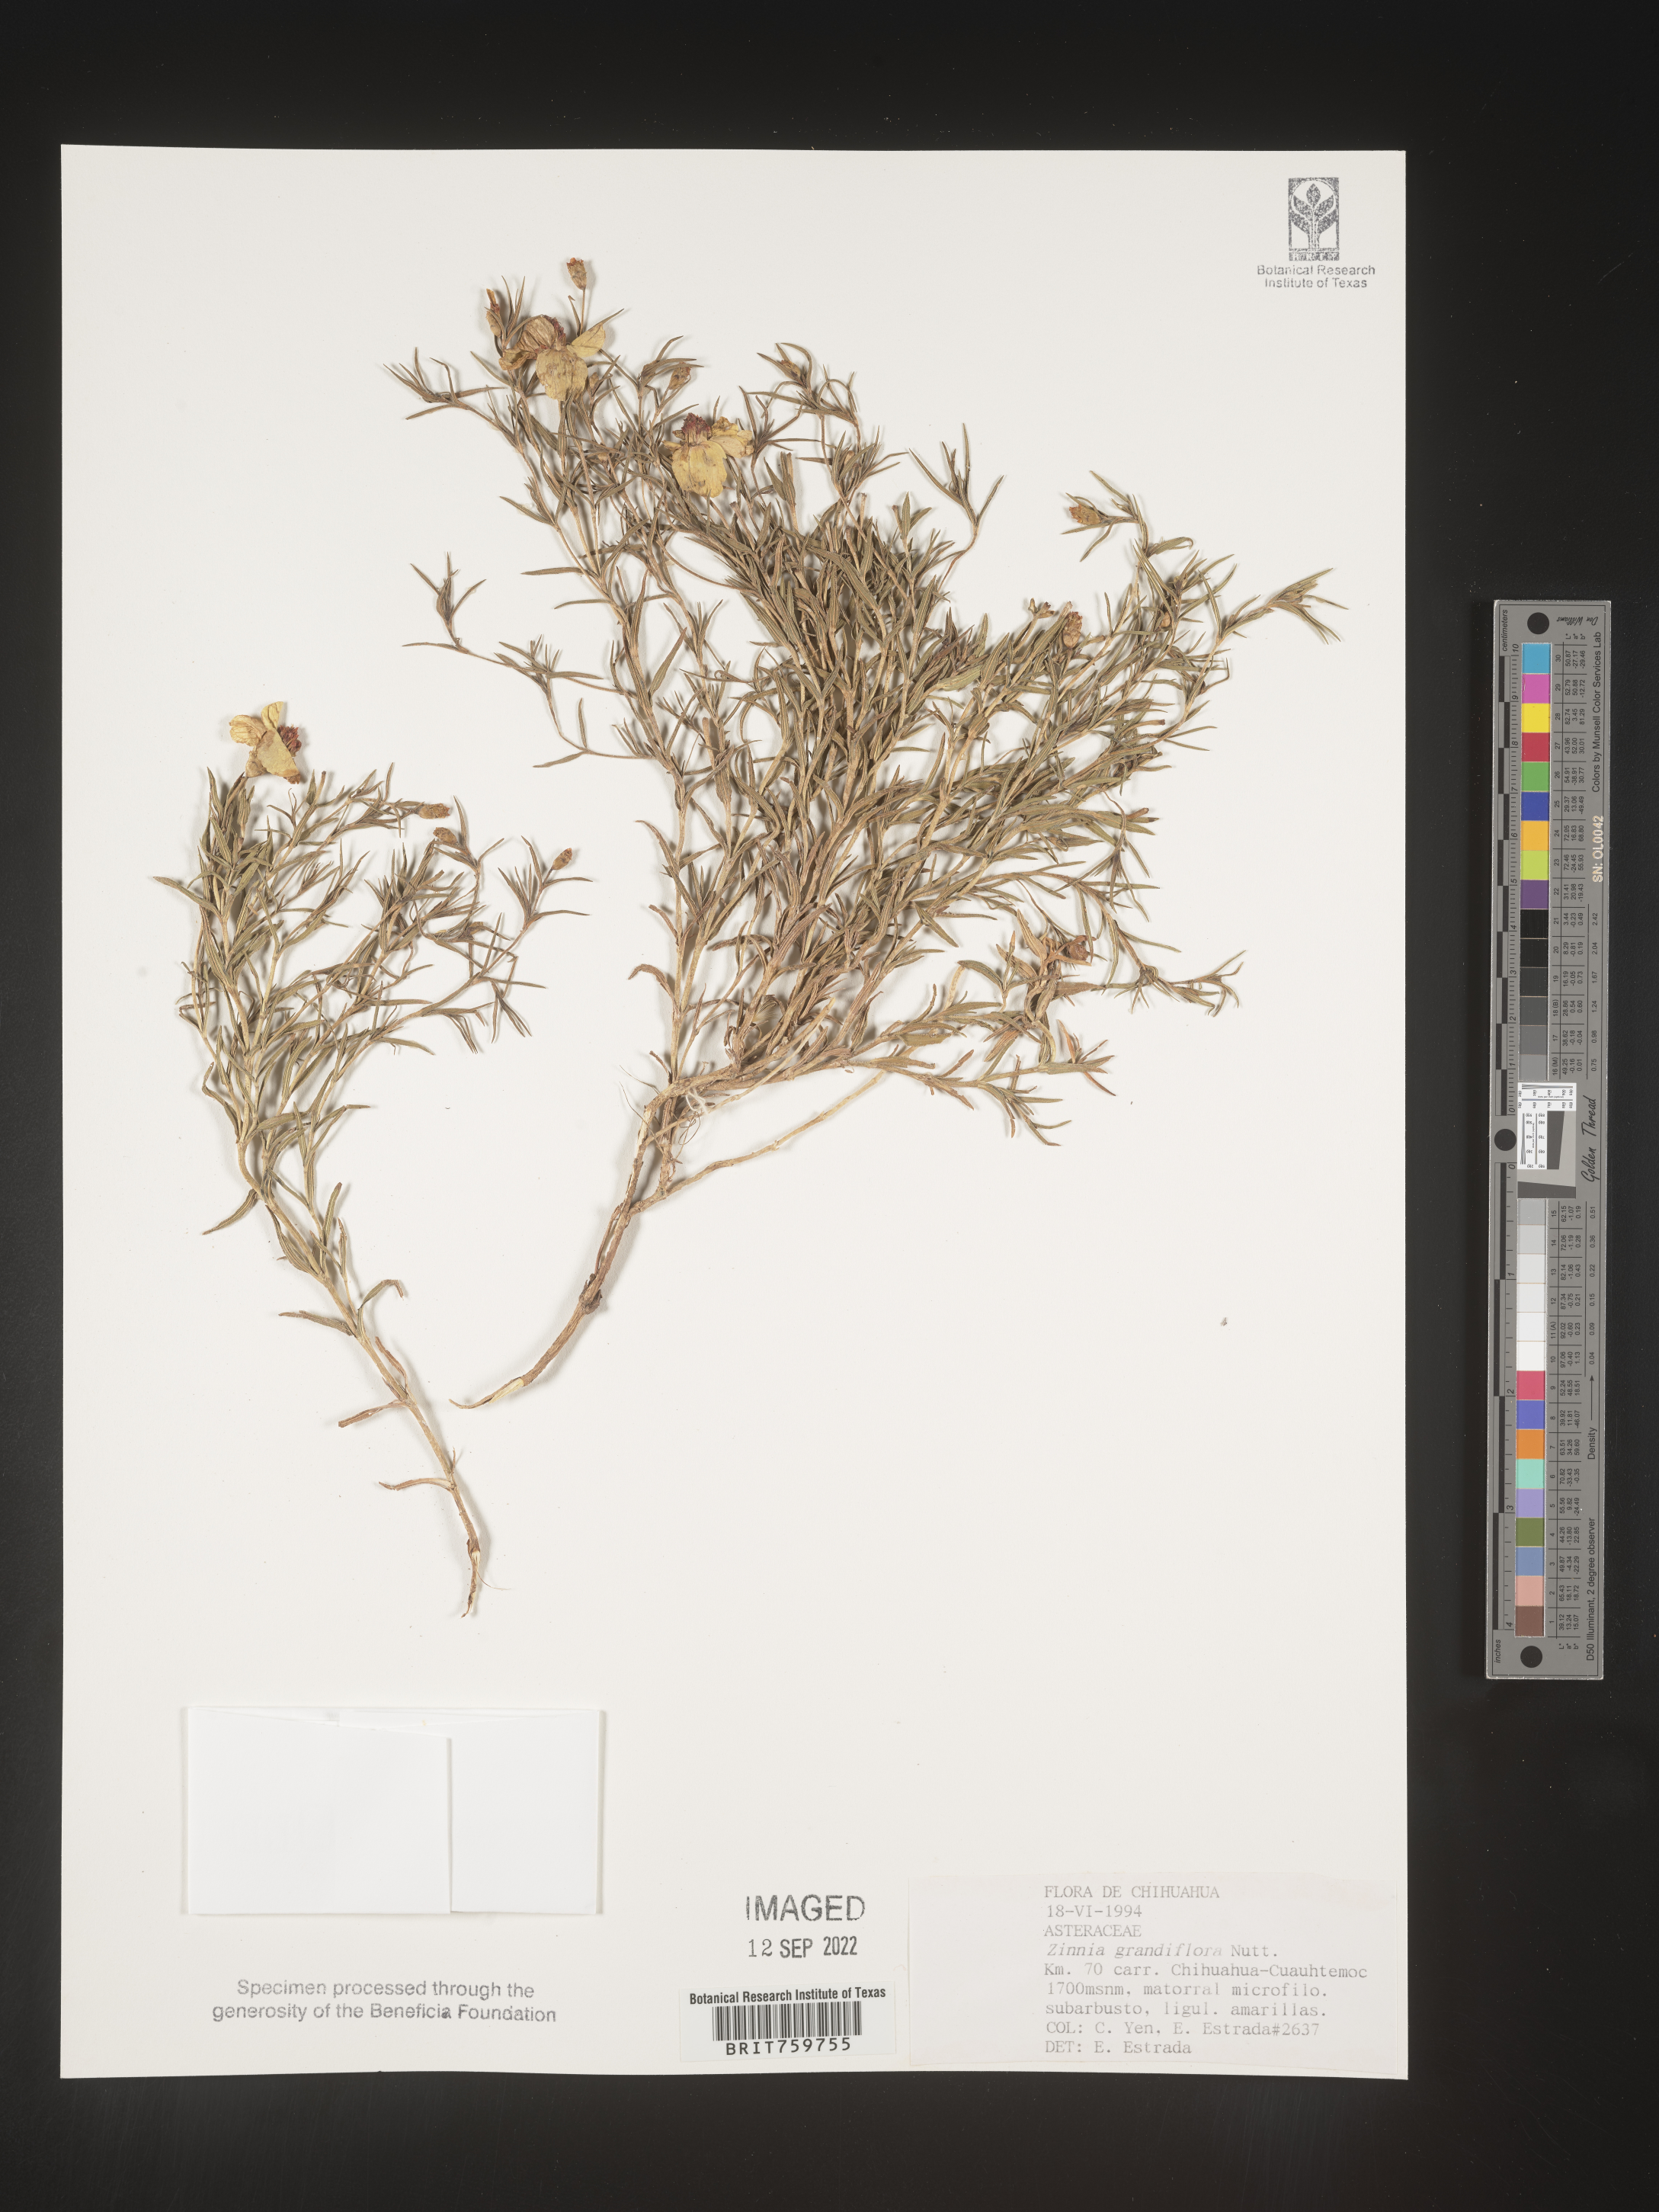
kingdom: Plantae
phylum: Tracheophyta
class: Magnoliopsida
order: Asterales
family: Asteraceae
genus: Zinnia
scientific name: Zinnia
